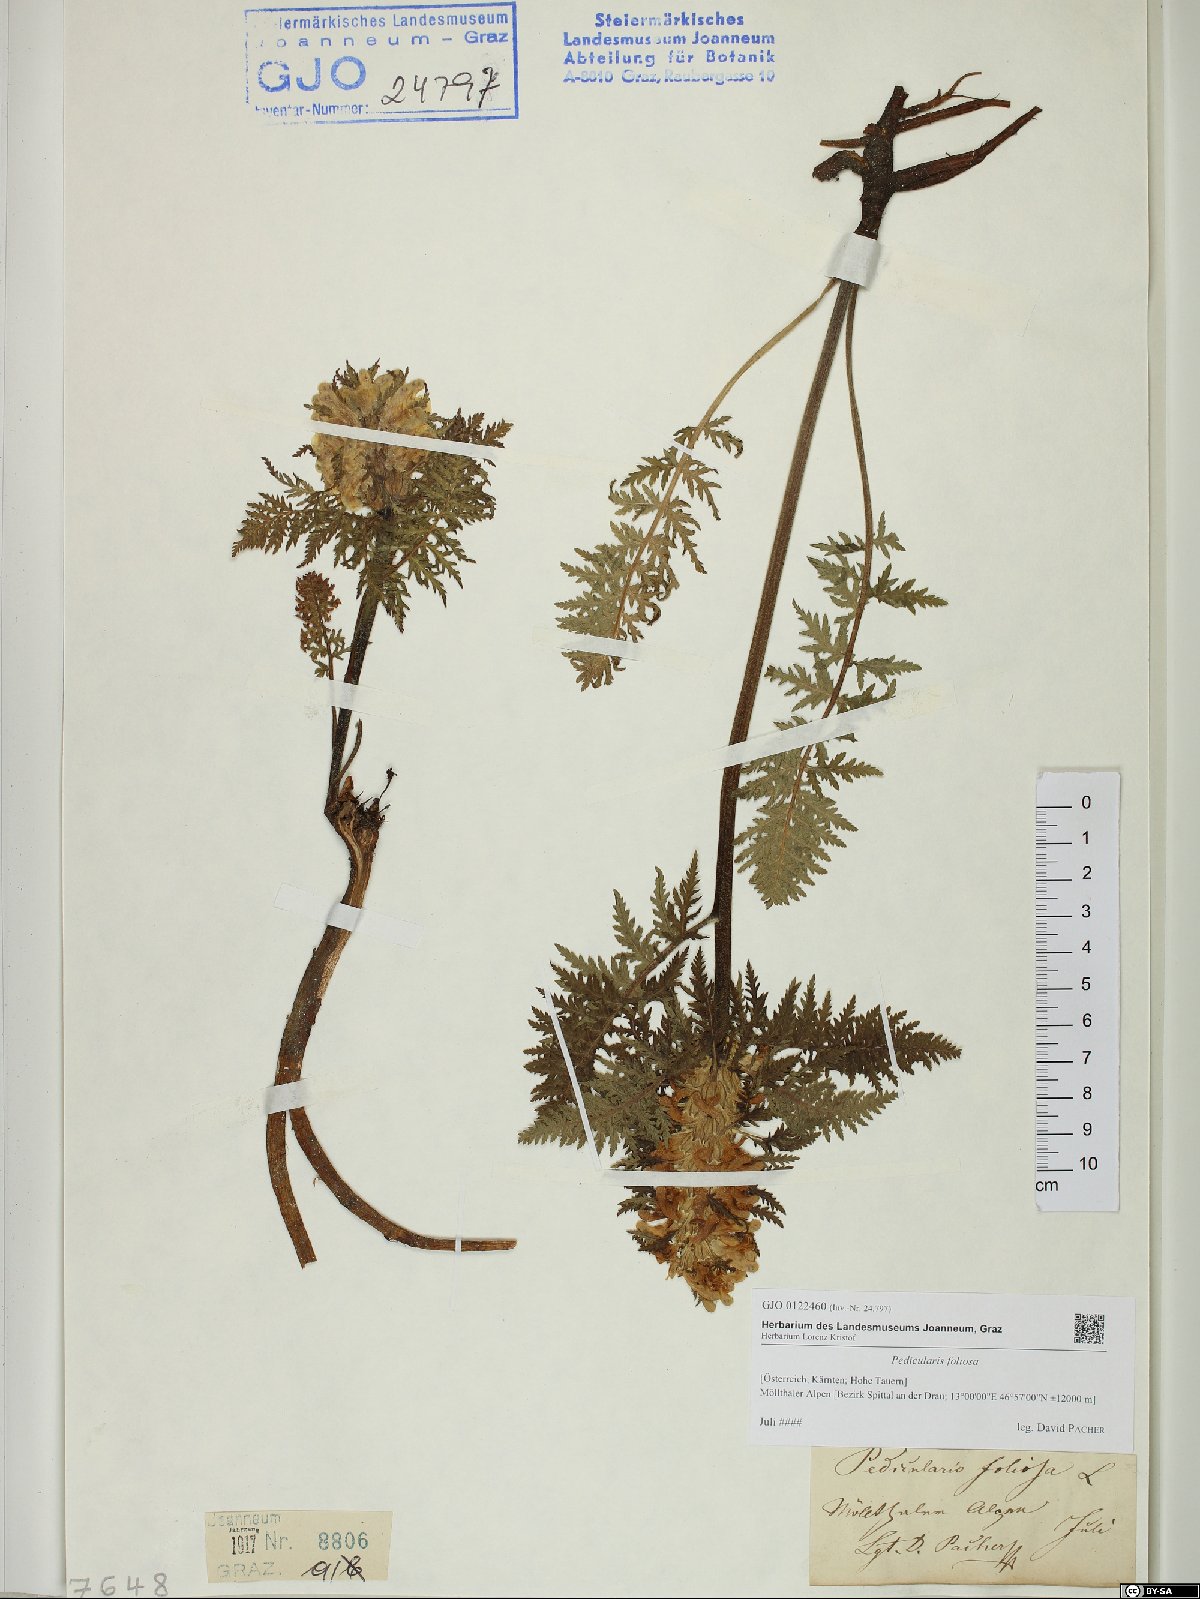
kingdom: Plantae
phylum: Tracheophyta
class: Magnoliopsida
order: Lamiales
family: Orobanchaceae
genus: Pedicularis
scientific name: Pedicularis foliosa
